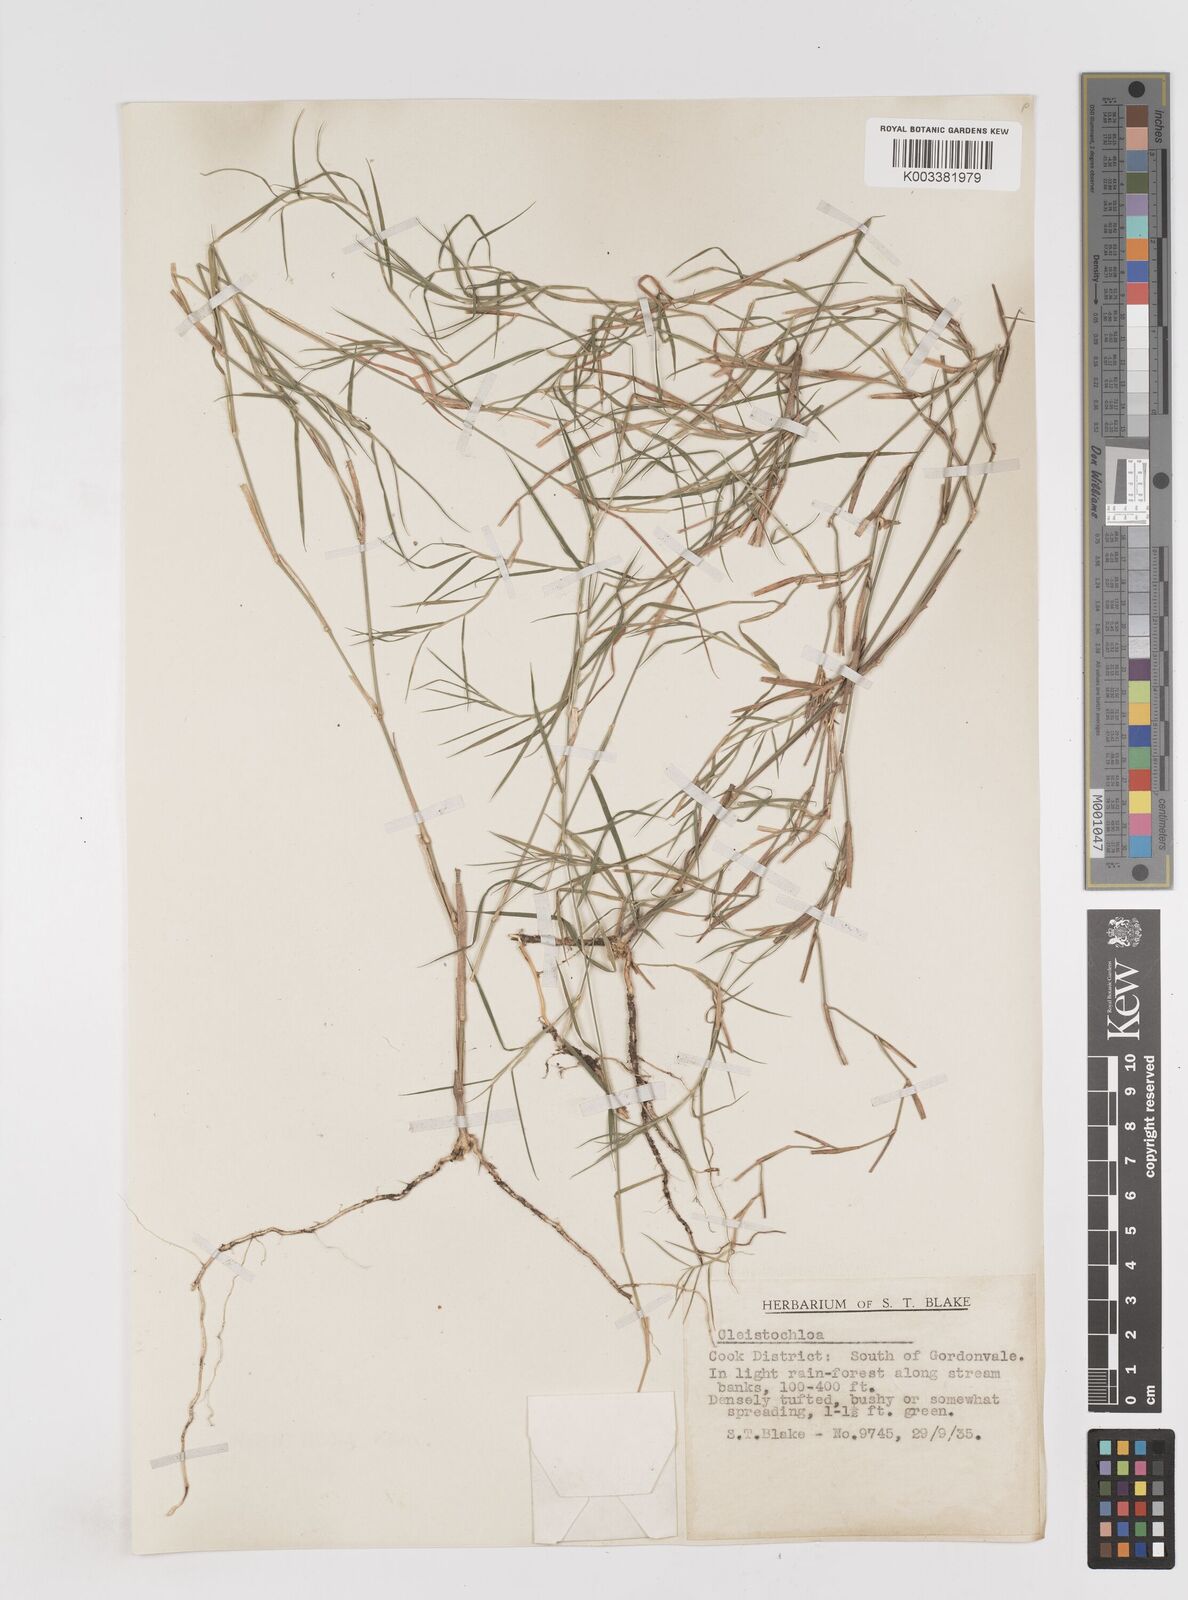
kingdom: Plantae
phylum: Tracheophyta
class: Liliopsida
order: Poales
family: Poaceae
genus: Cleistochloa
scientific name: Cleistochloa
